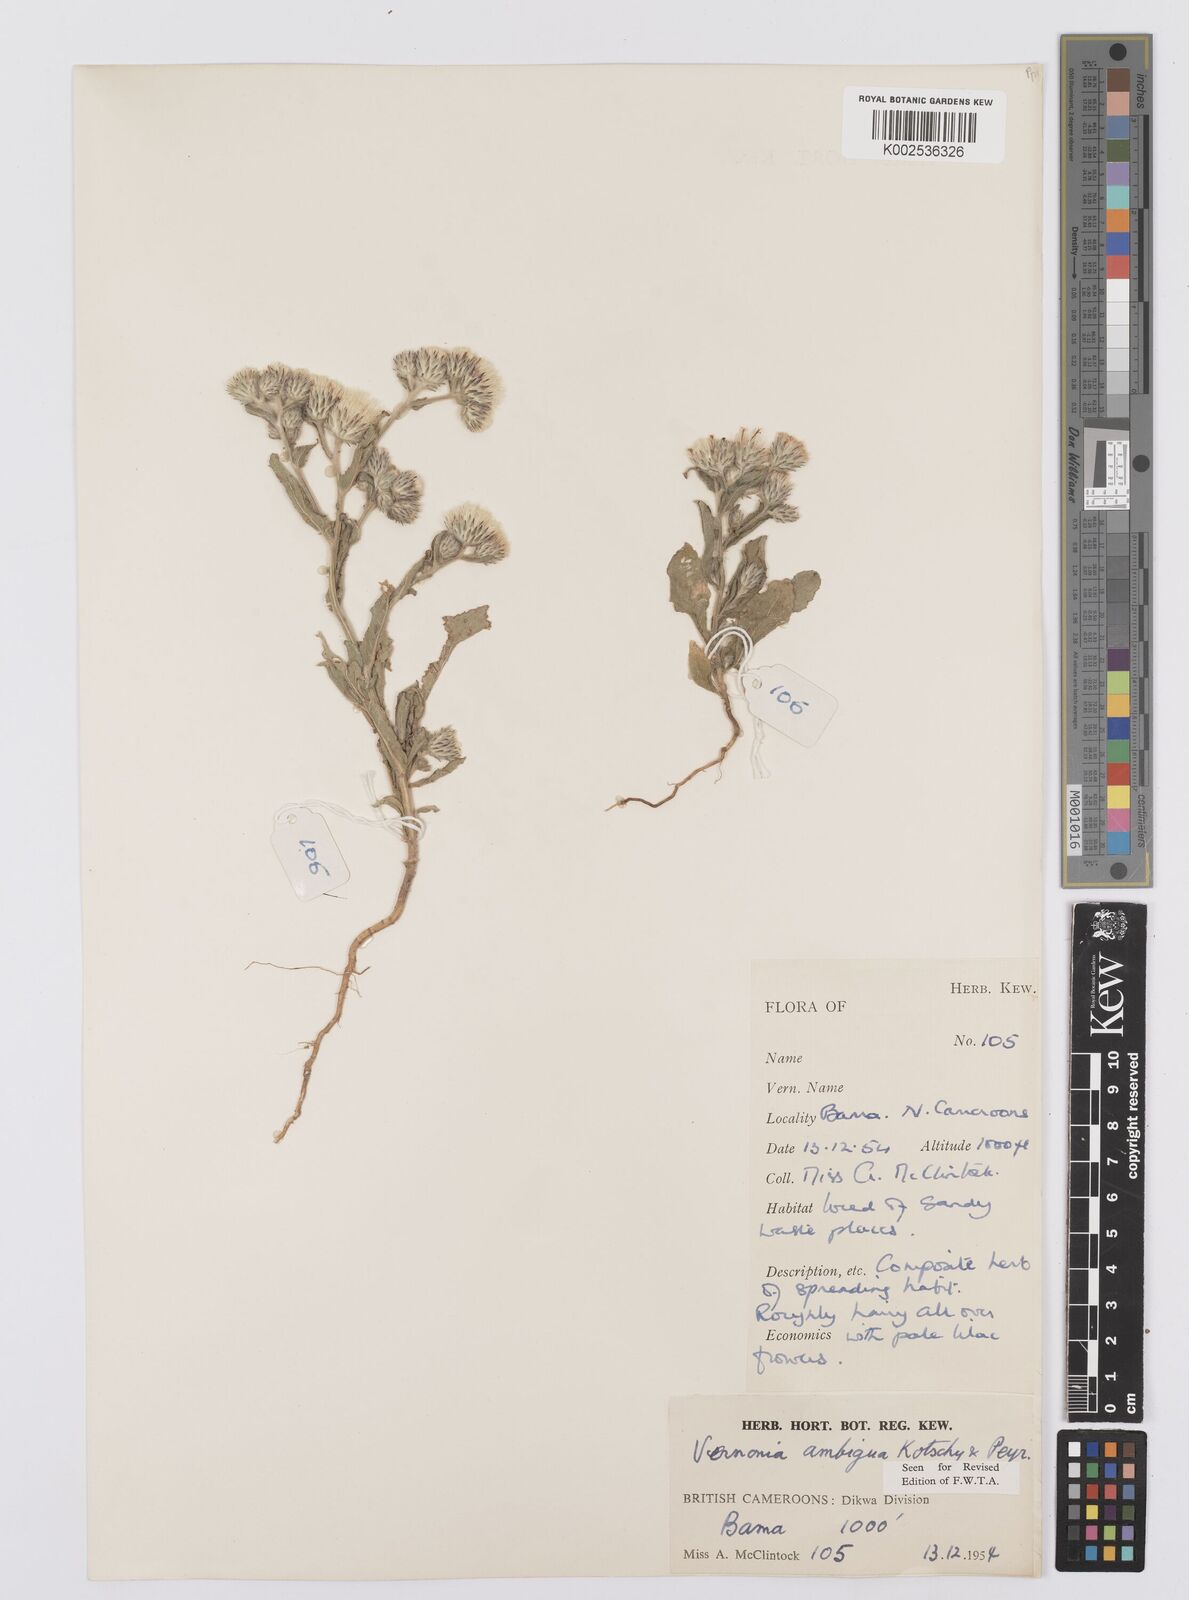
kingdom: Plantae
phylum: Tracheophyta
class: Magnoliopsida
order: Asterales
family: Asteraceae
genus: Vernoniastrum
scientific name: Vernoniastrum ambiguum
